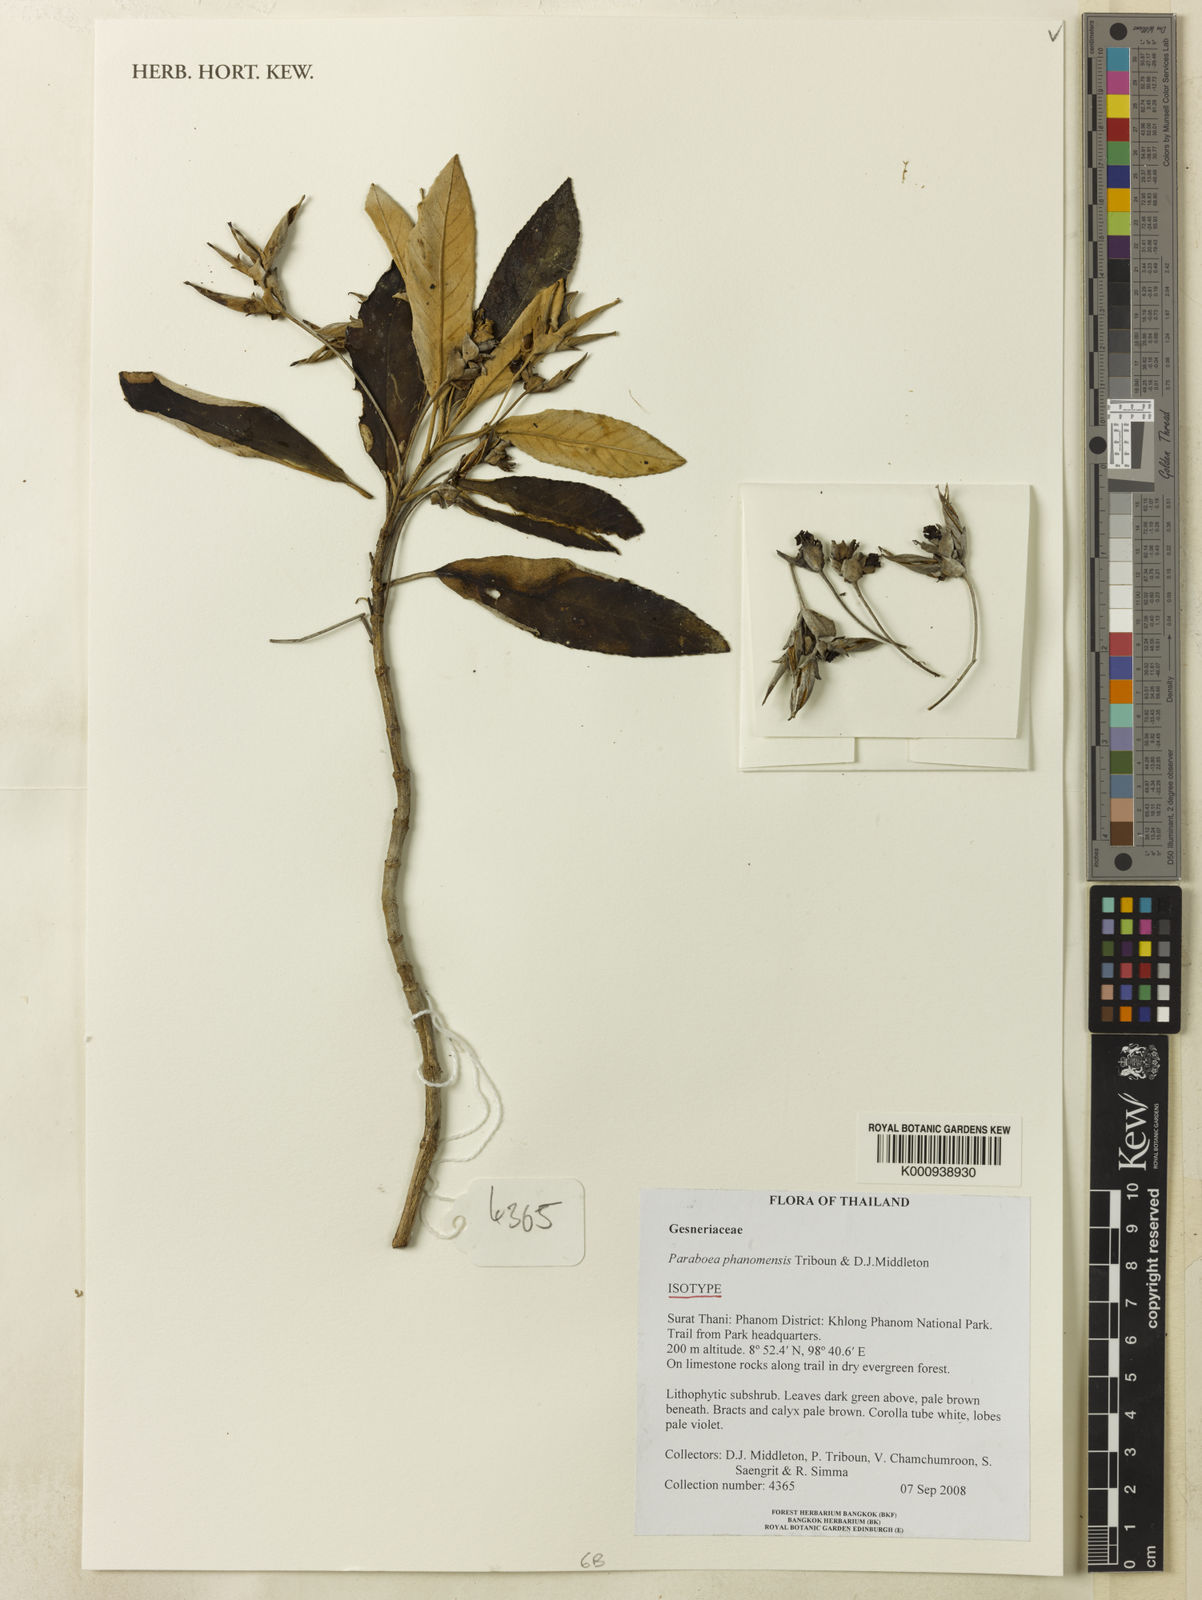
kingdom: Plantae
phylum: Tracheophyta
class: Magnoliopsida
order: Lamiales
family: Gesneriaceae
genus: Paraboea
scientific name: Paraboea phanomensis
